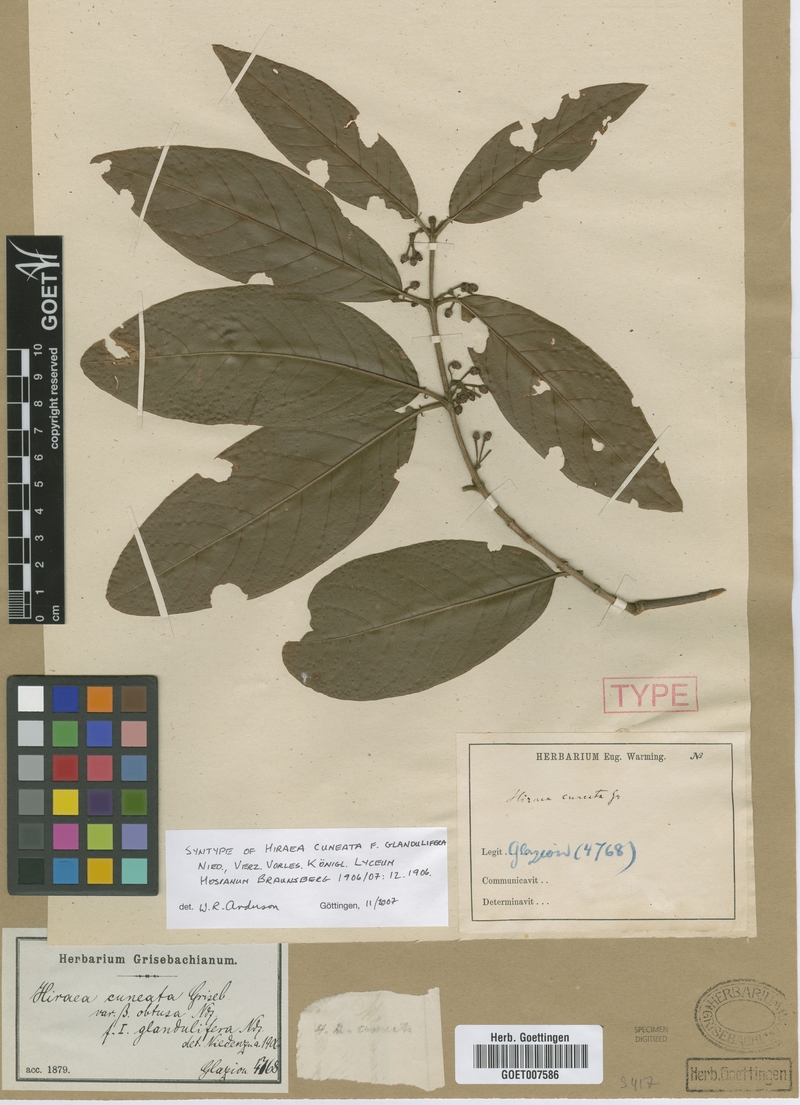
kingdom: Plantae
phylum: Tracheophyta
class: Magnoliopsida
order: Malpighiales
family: Malpighiaceae
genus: Hiraea
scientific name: Hiraea cuneata
